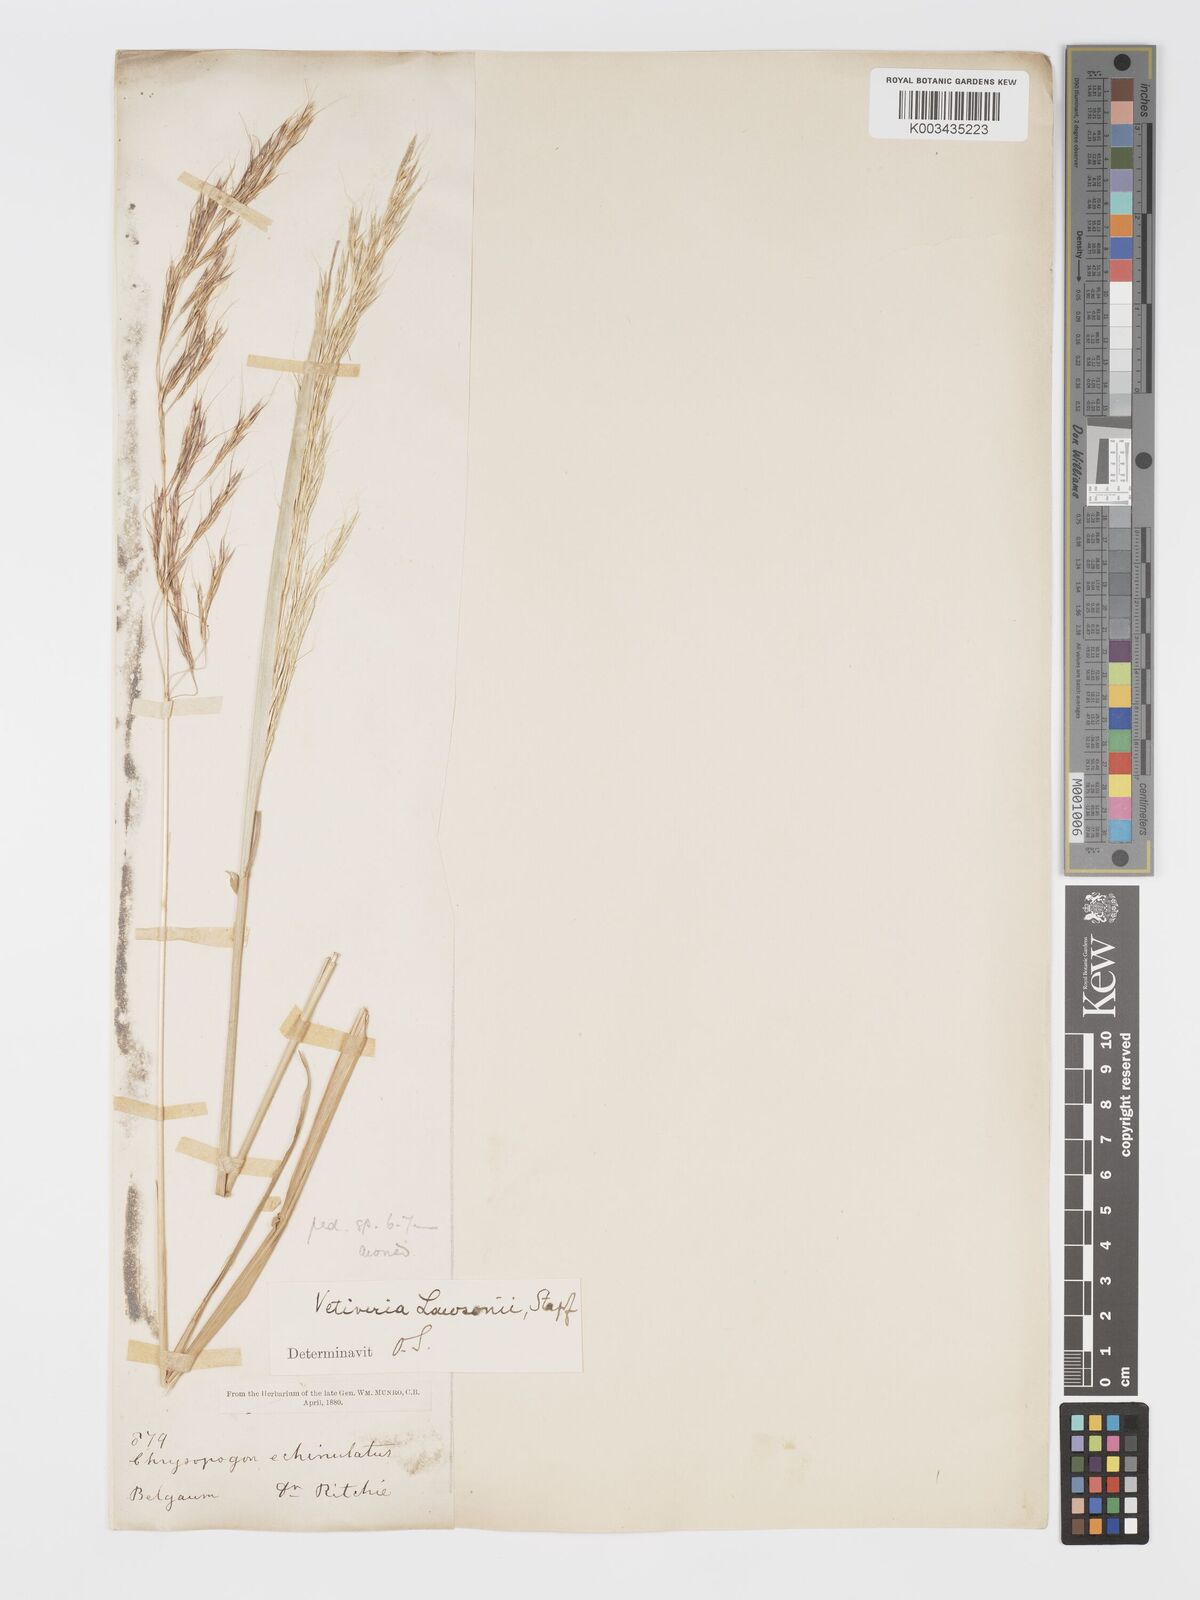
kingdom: Plantae
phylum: Tracheophyta
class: Liliopsida
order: Poales
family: Poaceae
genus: Chrysopogon
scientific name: Chrysopogon lawsonii
